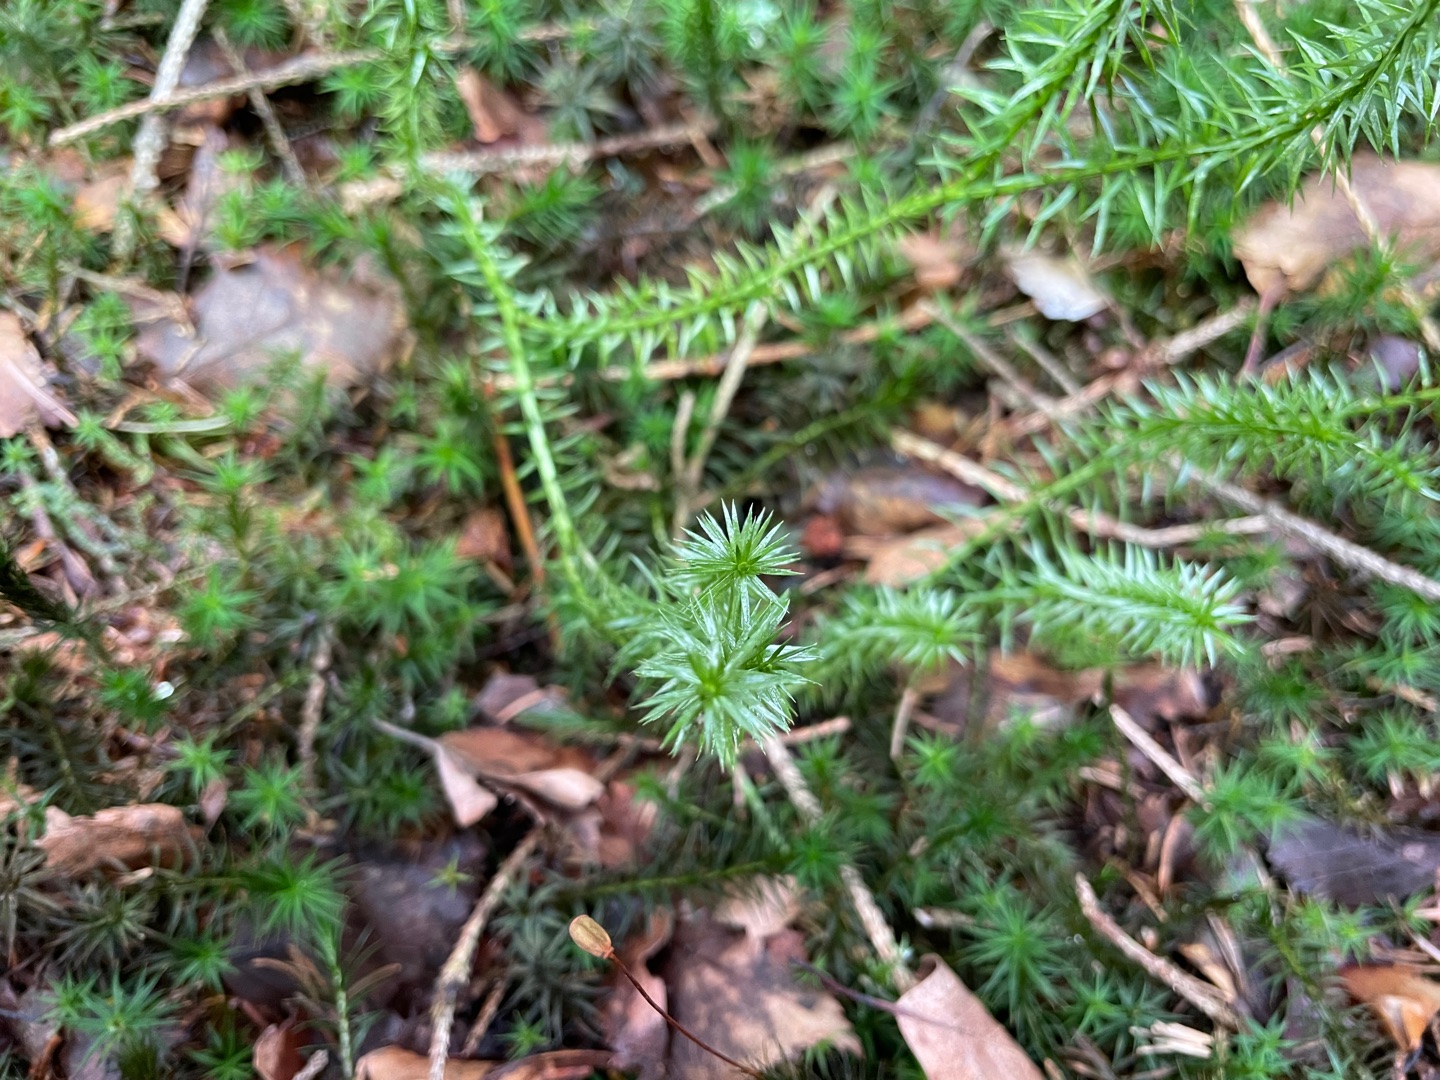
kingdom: Plantae
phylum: Tracheophyta
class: Lycopodiopsida
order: Lycopodiales
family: Lycopodiaceae
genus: Spinulum
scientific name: Spinulum annotinum
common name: Femradet ulvefod
